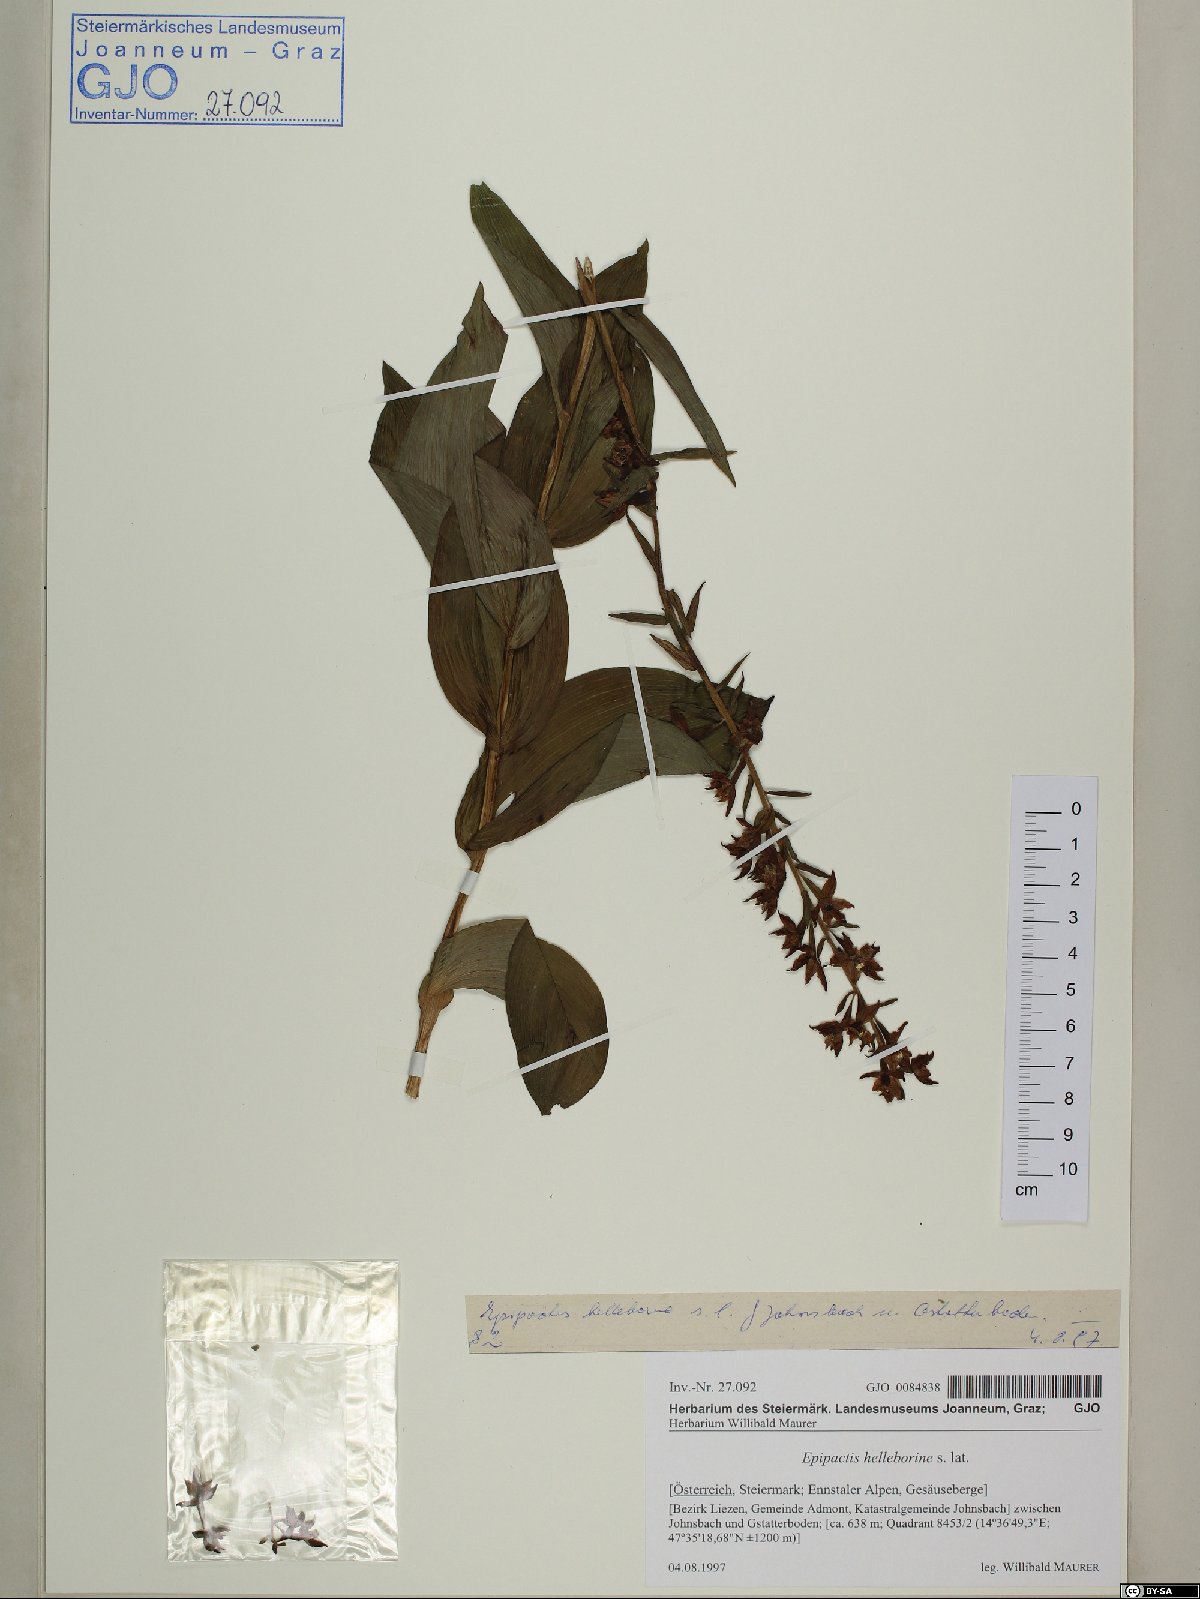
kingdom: Plantae
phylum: Tracheophyta
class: Liliopsida
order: Asparagales
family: Orchidaceae
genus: Epipactis
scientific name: Epipactis helleborine
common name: Broad-leaved helleborine
